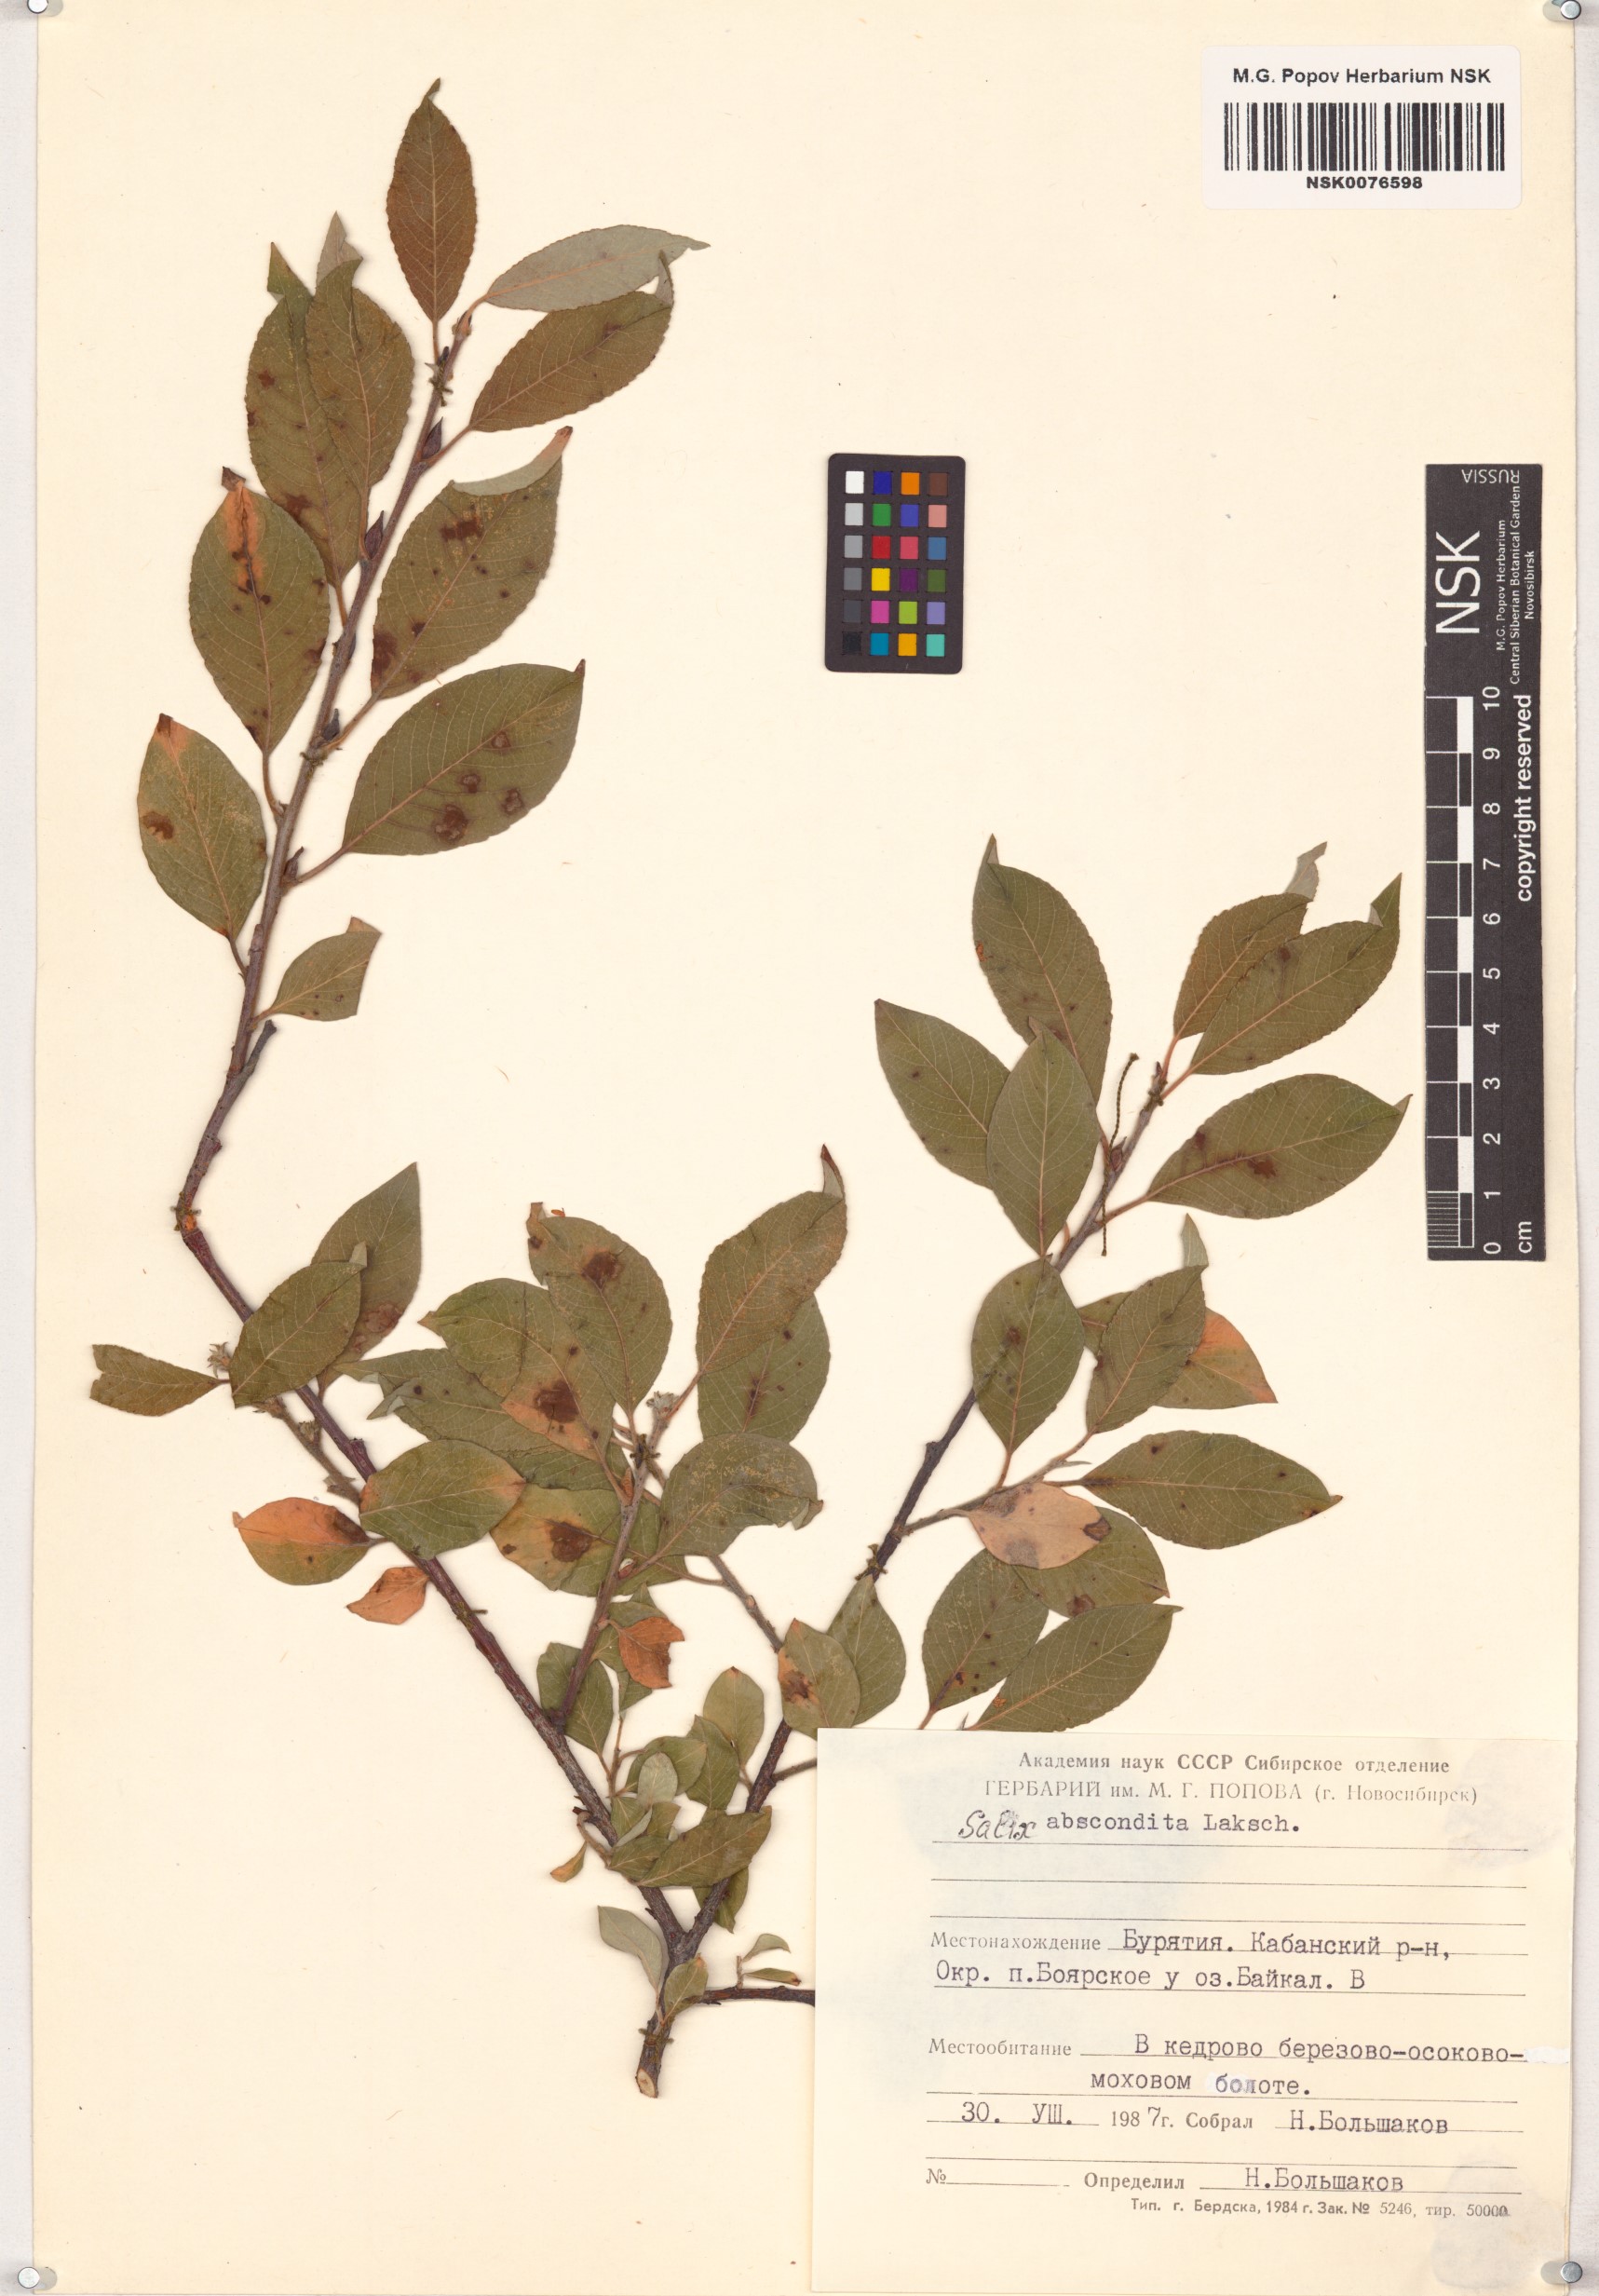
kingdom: Plantae
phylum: Tracheophyta
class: Magnoliopsida
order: Malpighiales
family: Salicaceae
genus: Salix
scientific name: Salix abscondita
